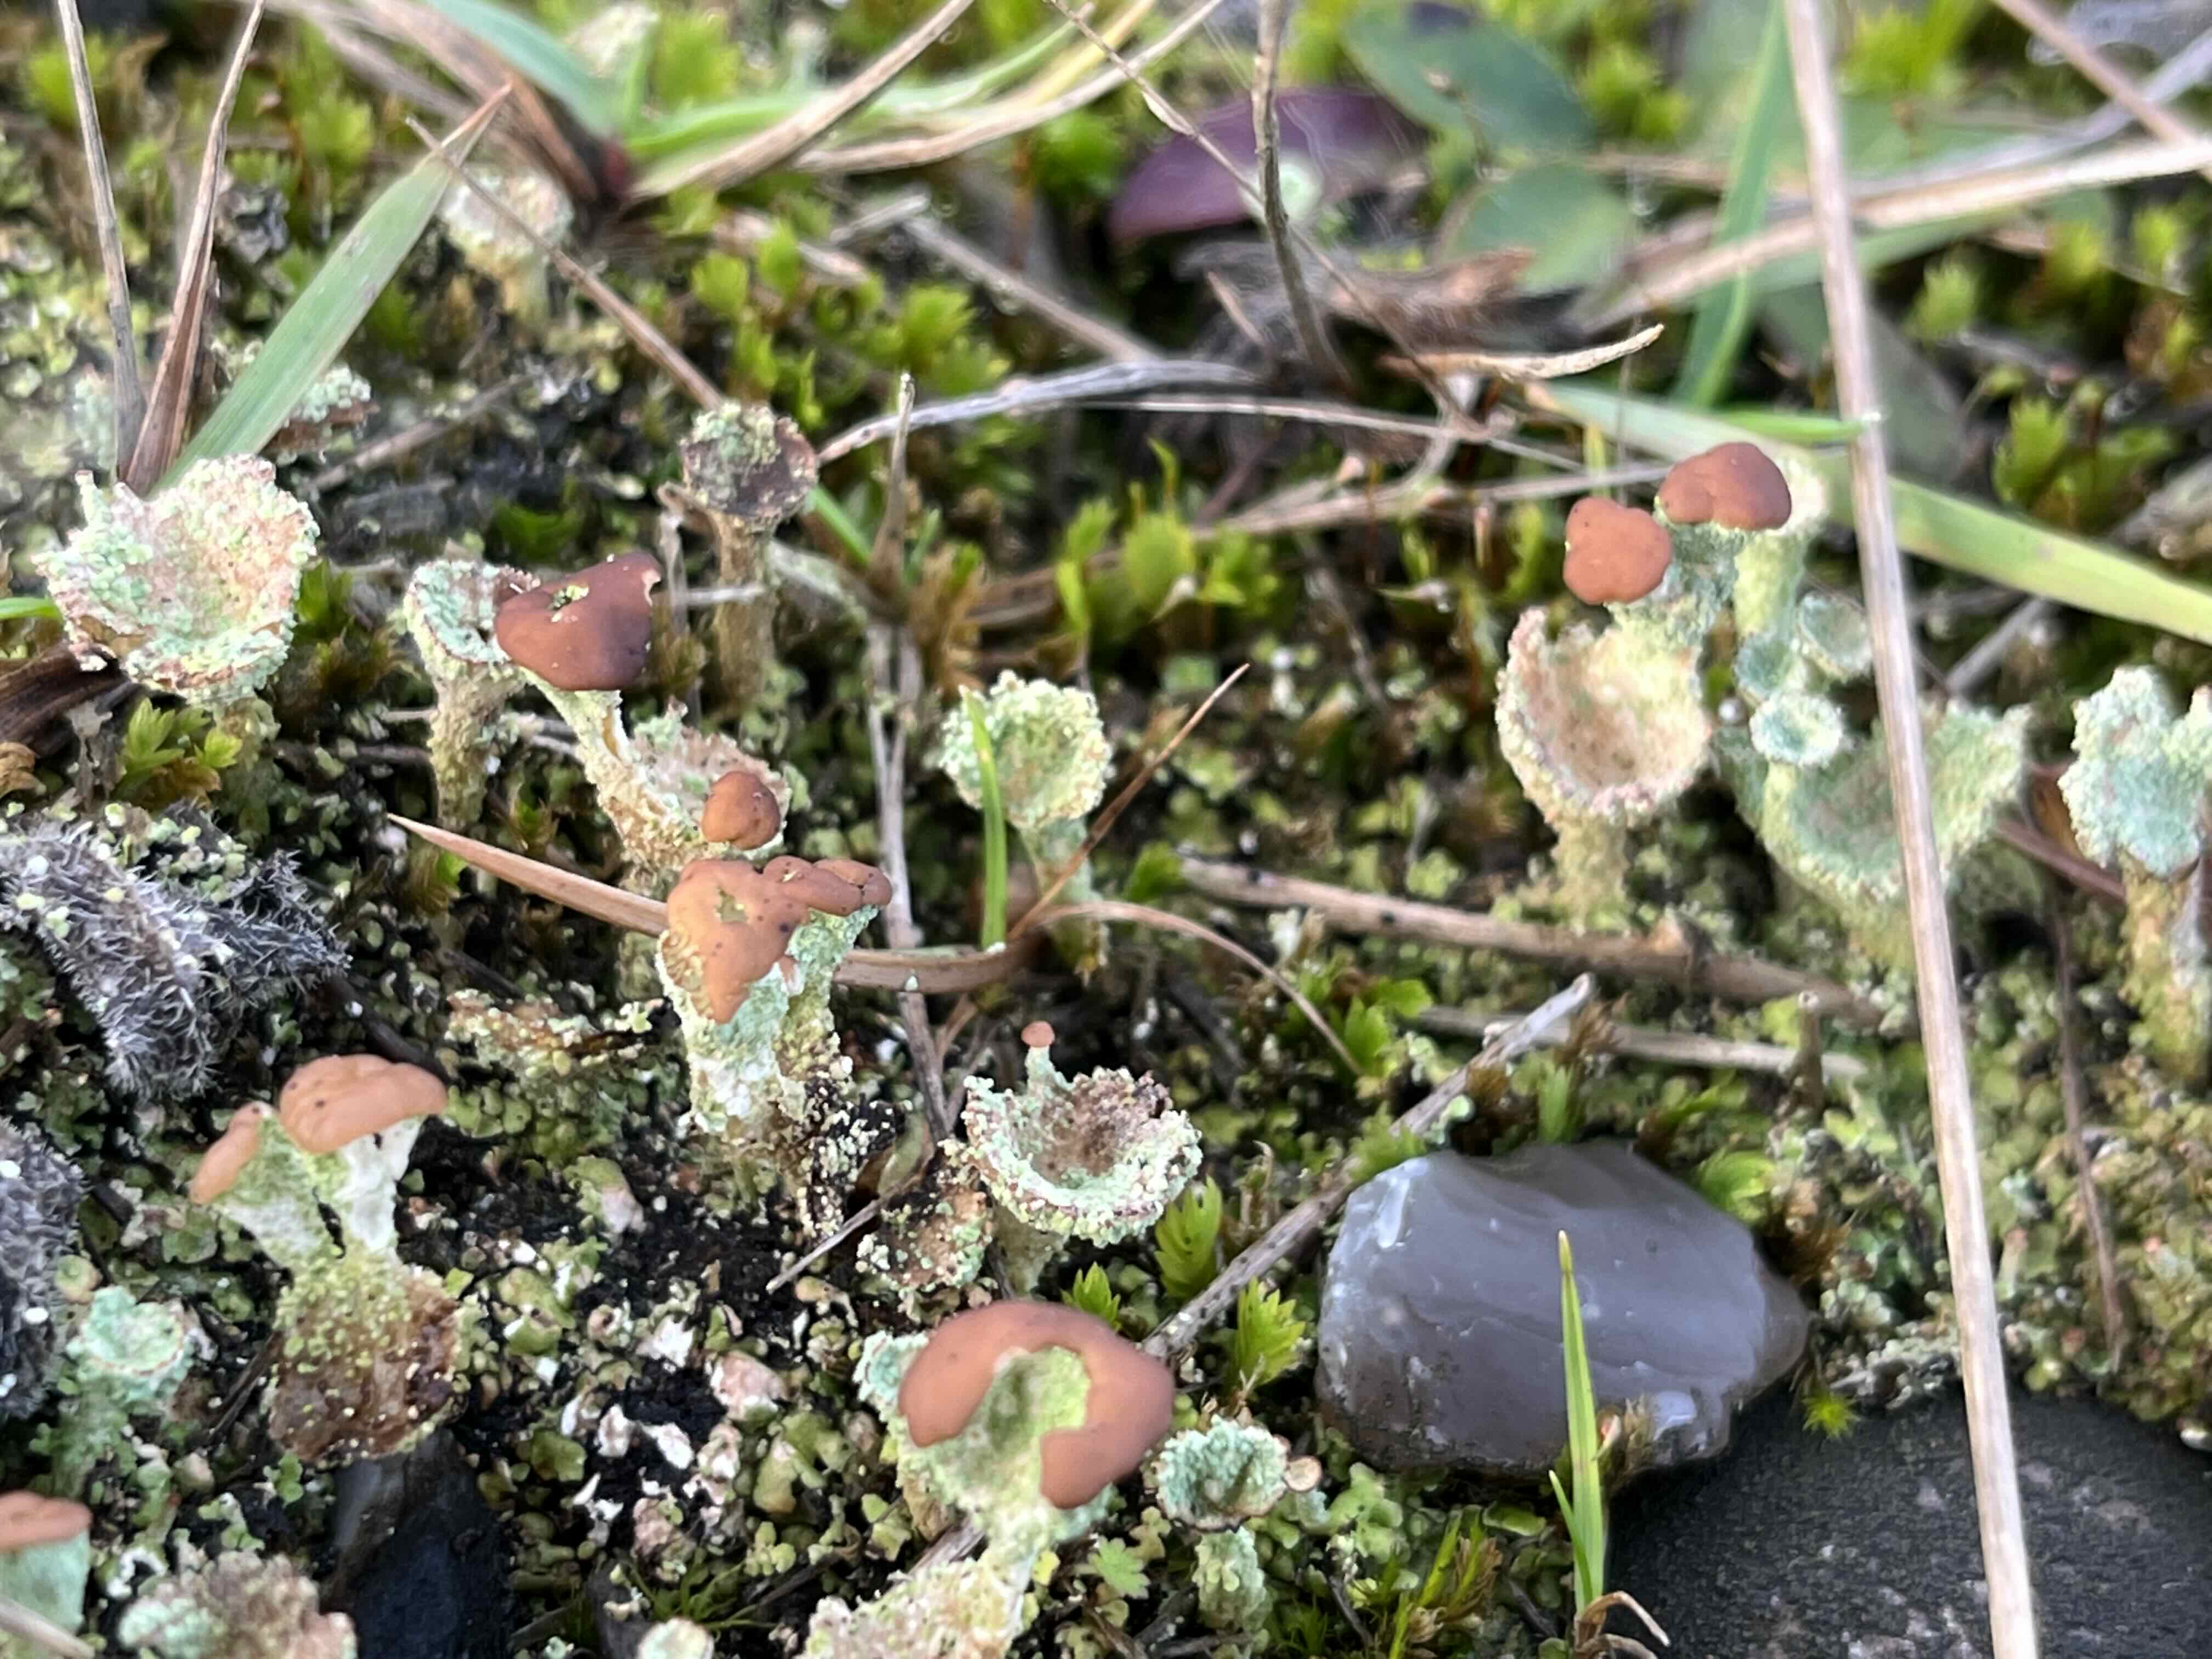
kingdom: Fungi
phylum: Ascomycota
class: Lecanoromycetes
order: Lecanorales
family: Cladoniaceae
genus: Cladonia
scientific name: Cladonia
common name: brungrøn bægerlav
